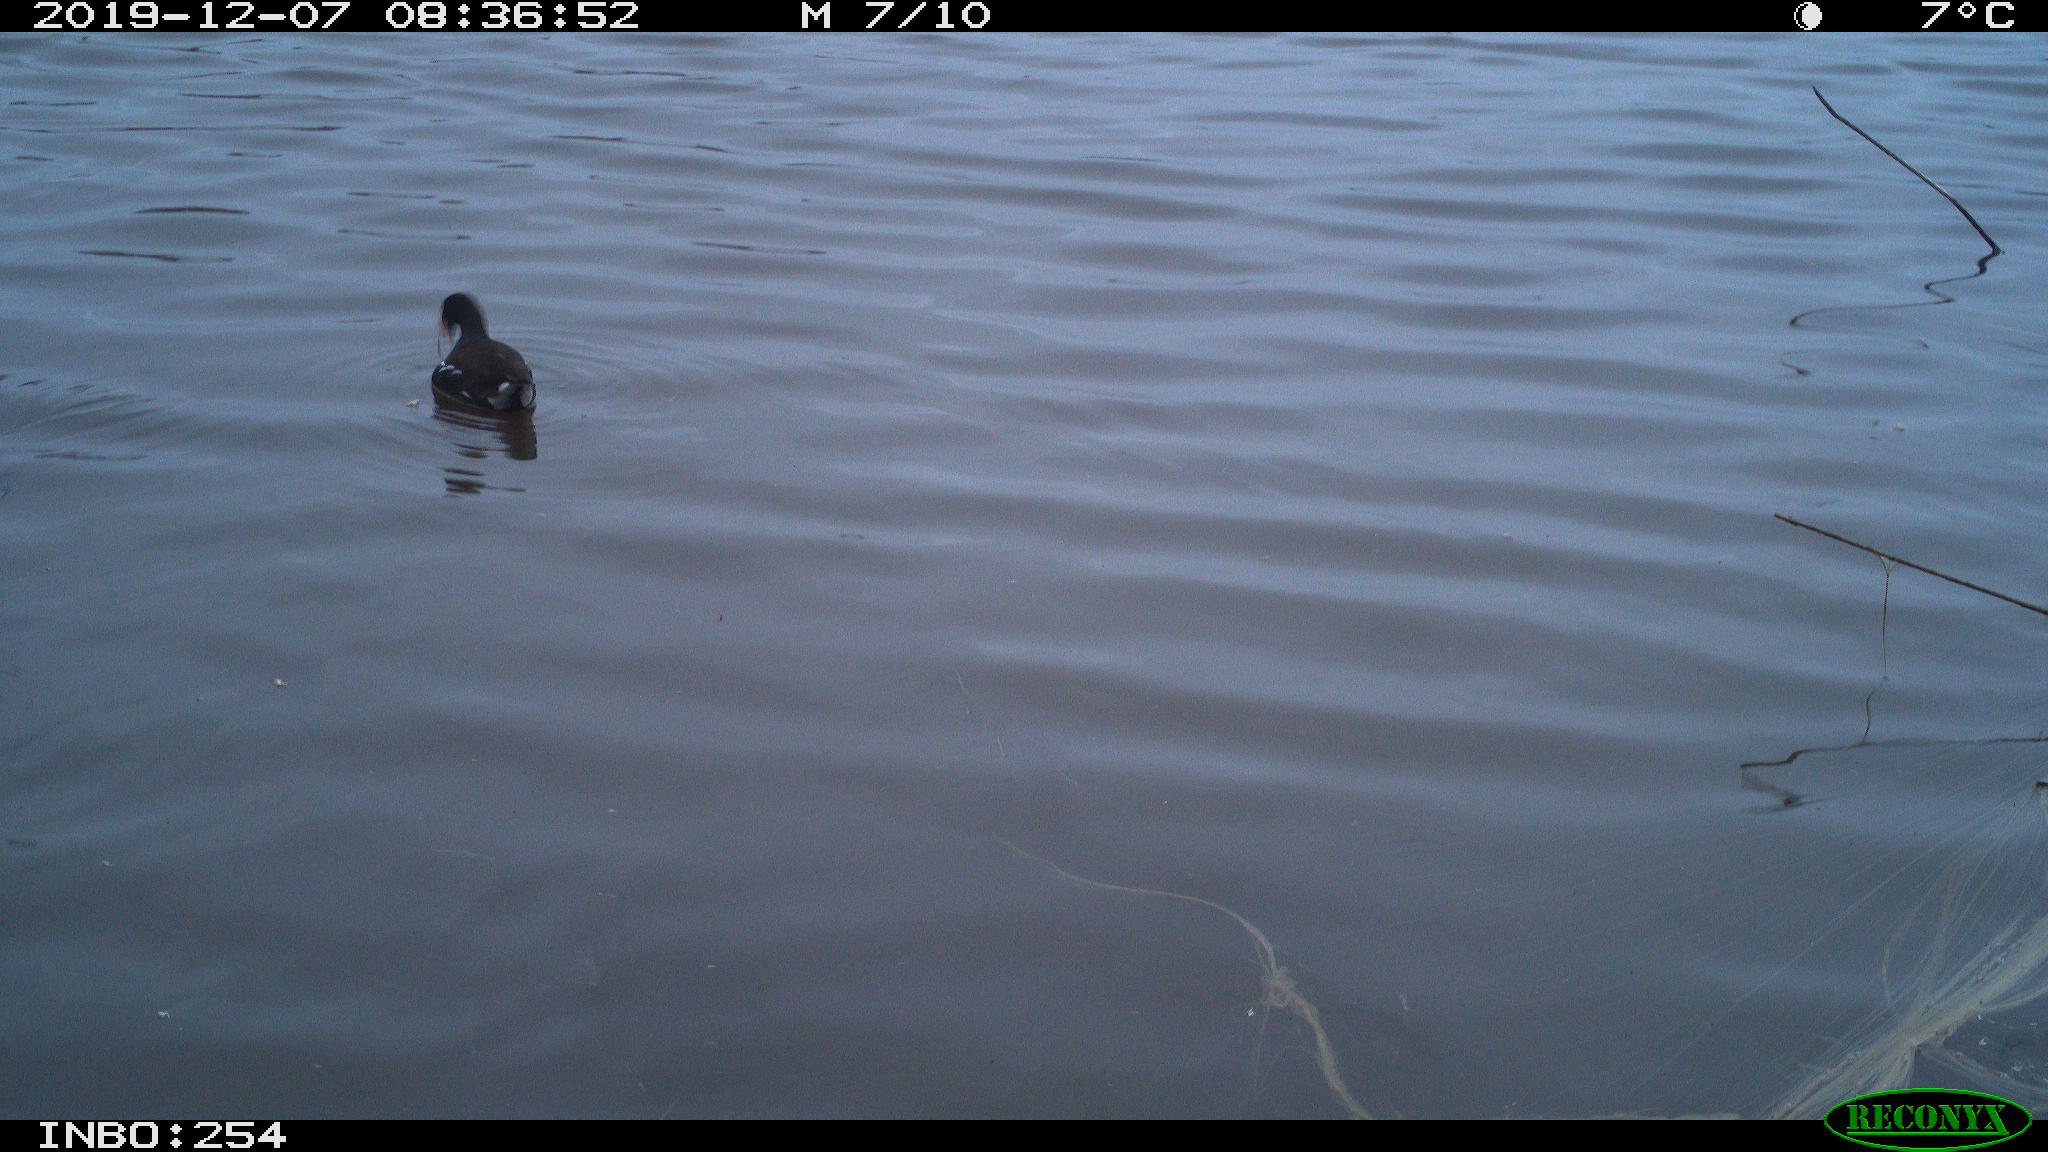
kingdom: Animalia
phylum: Chordata
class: Aves
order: Gruiformes
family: Rallidae
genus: Gallinula
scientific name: Gallinula chloropus
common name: Common moorhen
